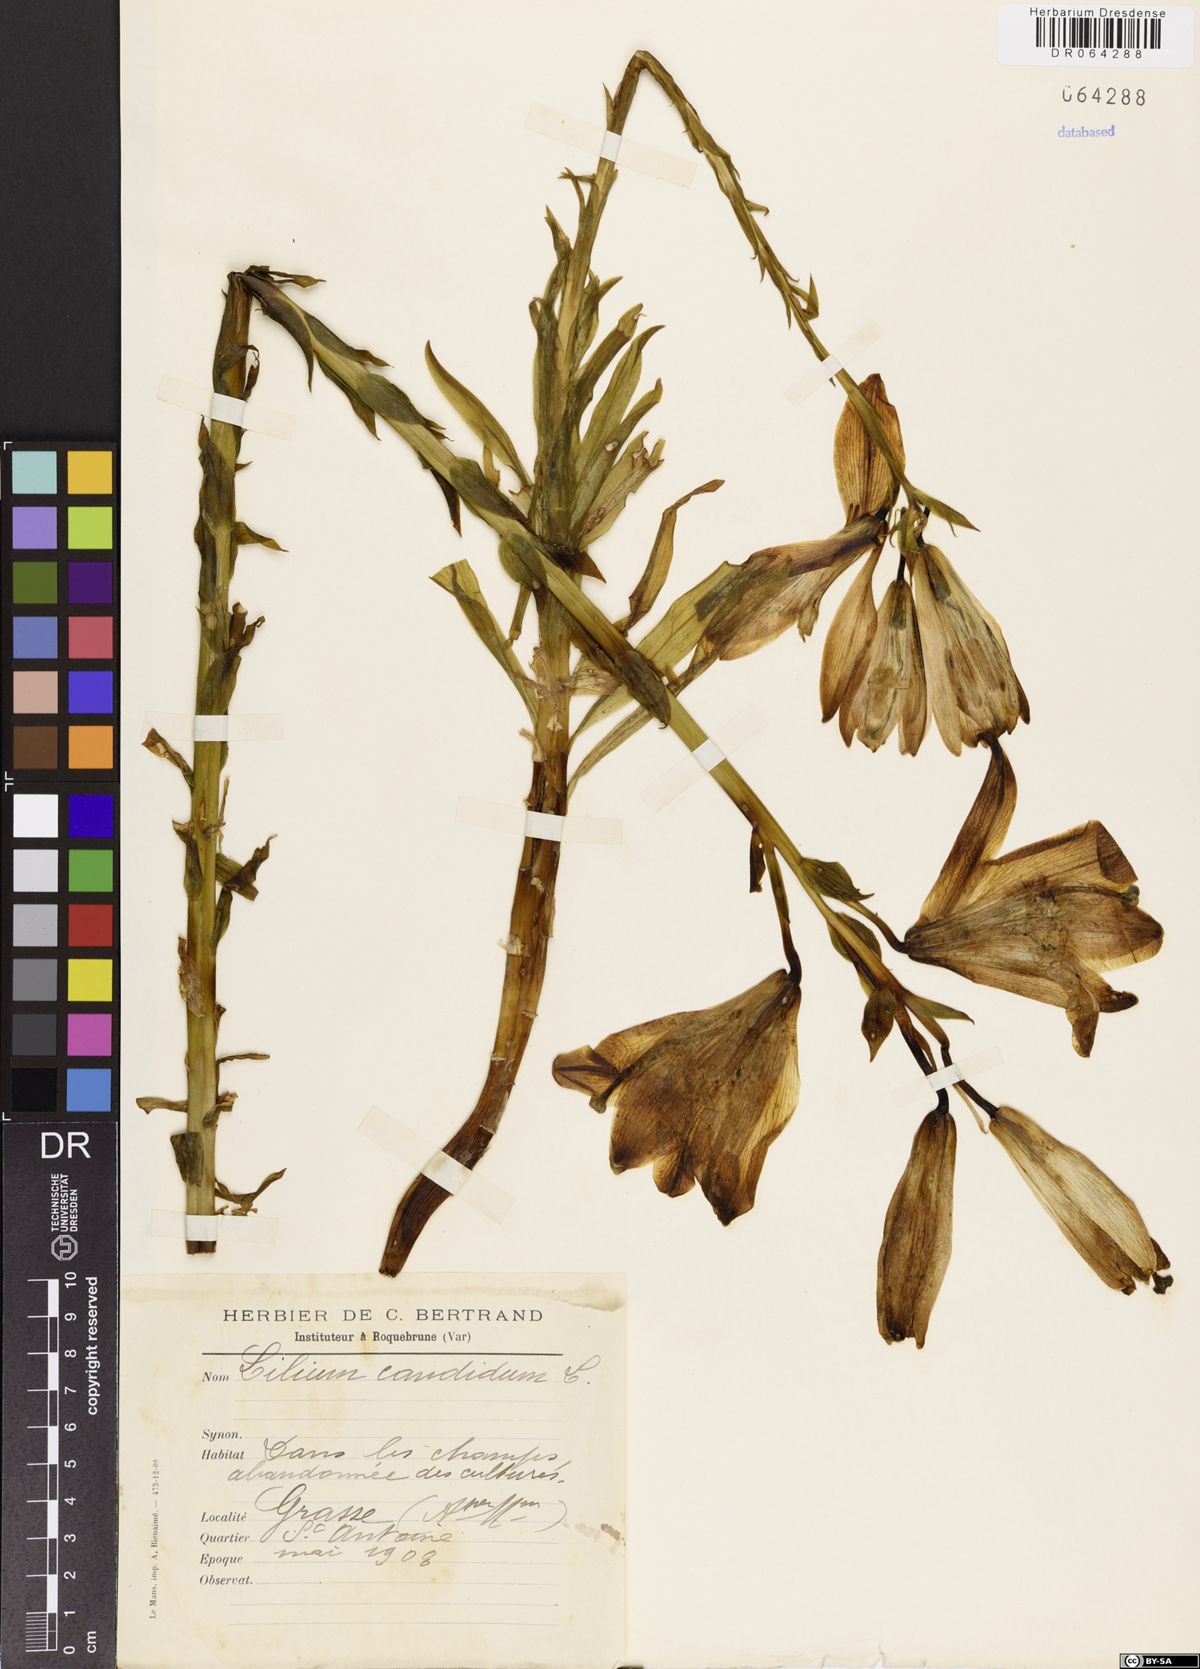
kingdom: Plantae
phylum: Tracheophyta
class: Liliopsida
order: Liliales
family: Liliaceae
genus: Lilium
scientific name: Lilium candidum
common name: Madonna lily
